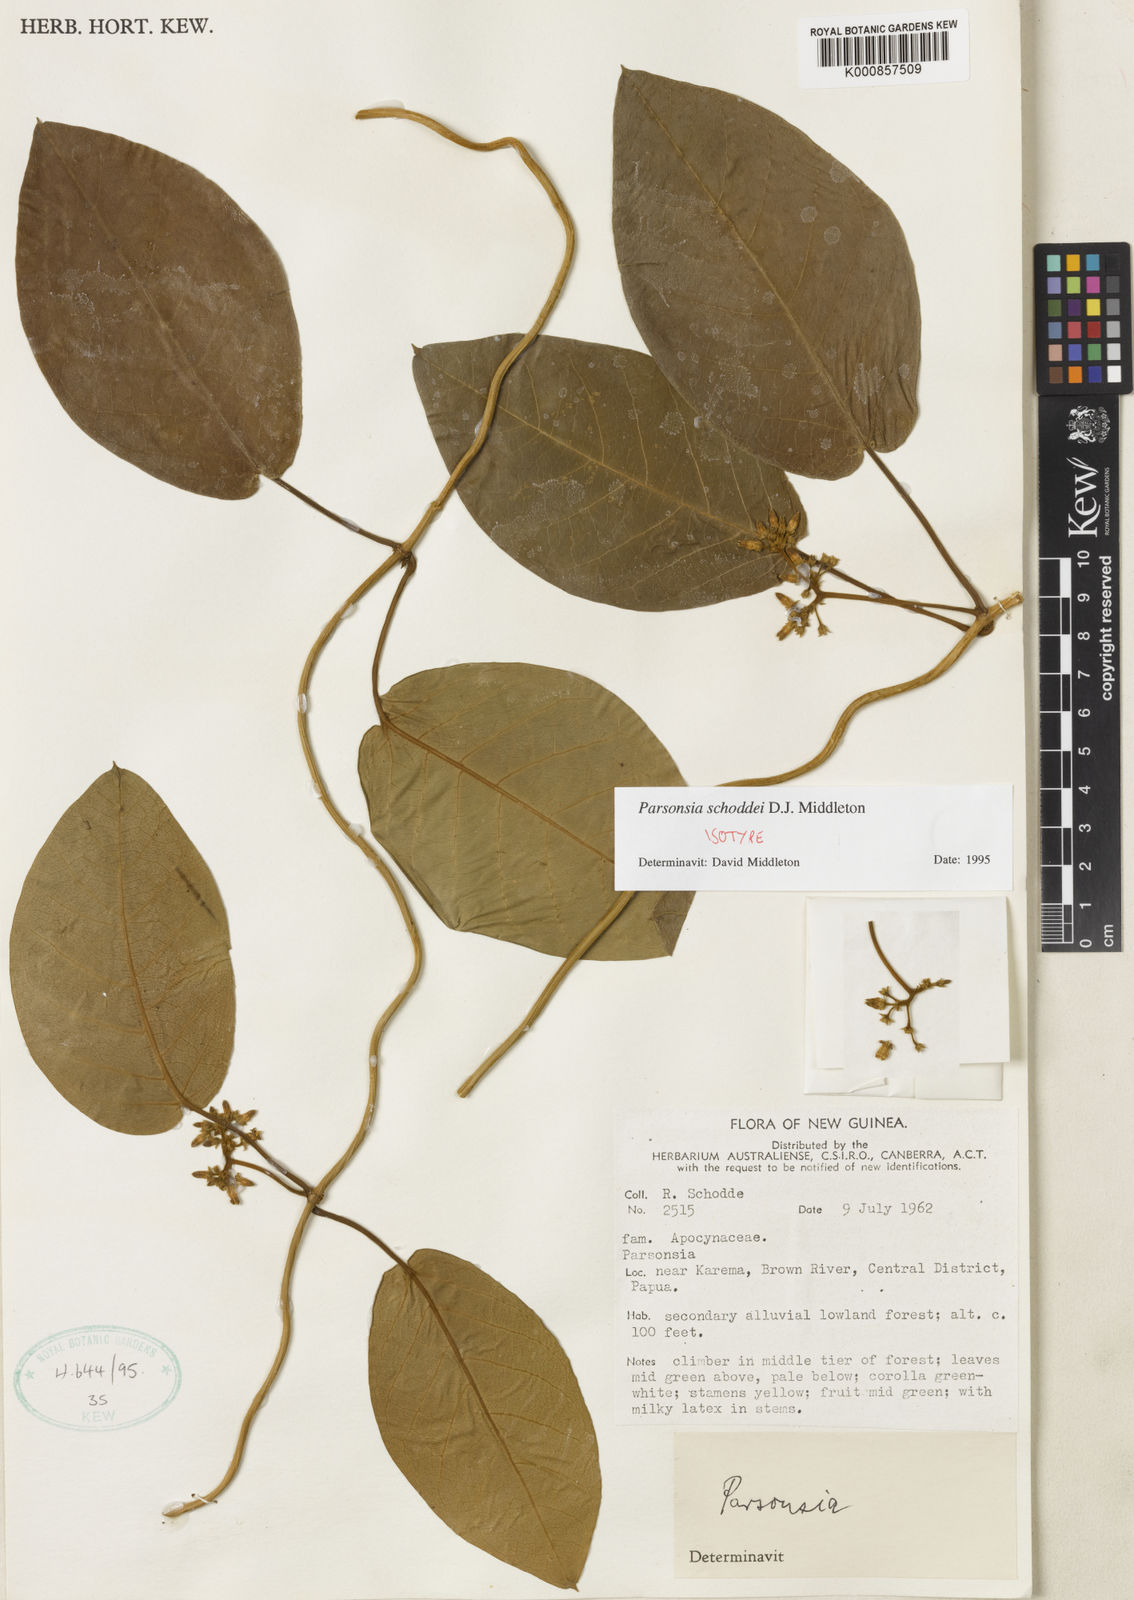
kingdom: Plantae
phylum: Tracheophyta
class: Magnoliopsida
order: Gentianales
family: Apocynaceae
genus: Parsonsia
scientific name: Parsonsia schoddei
